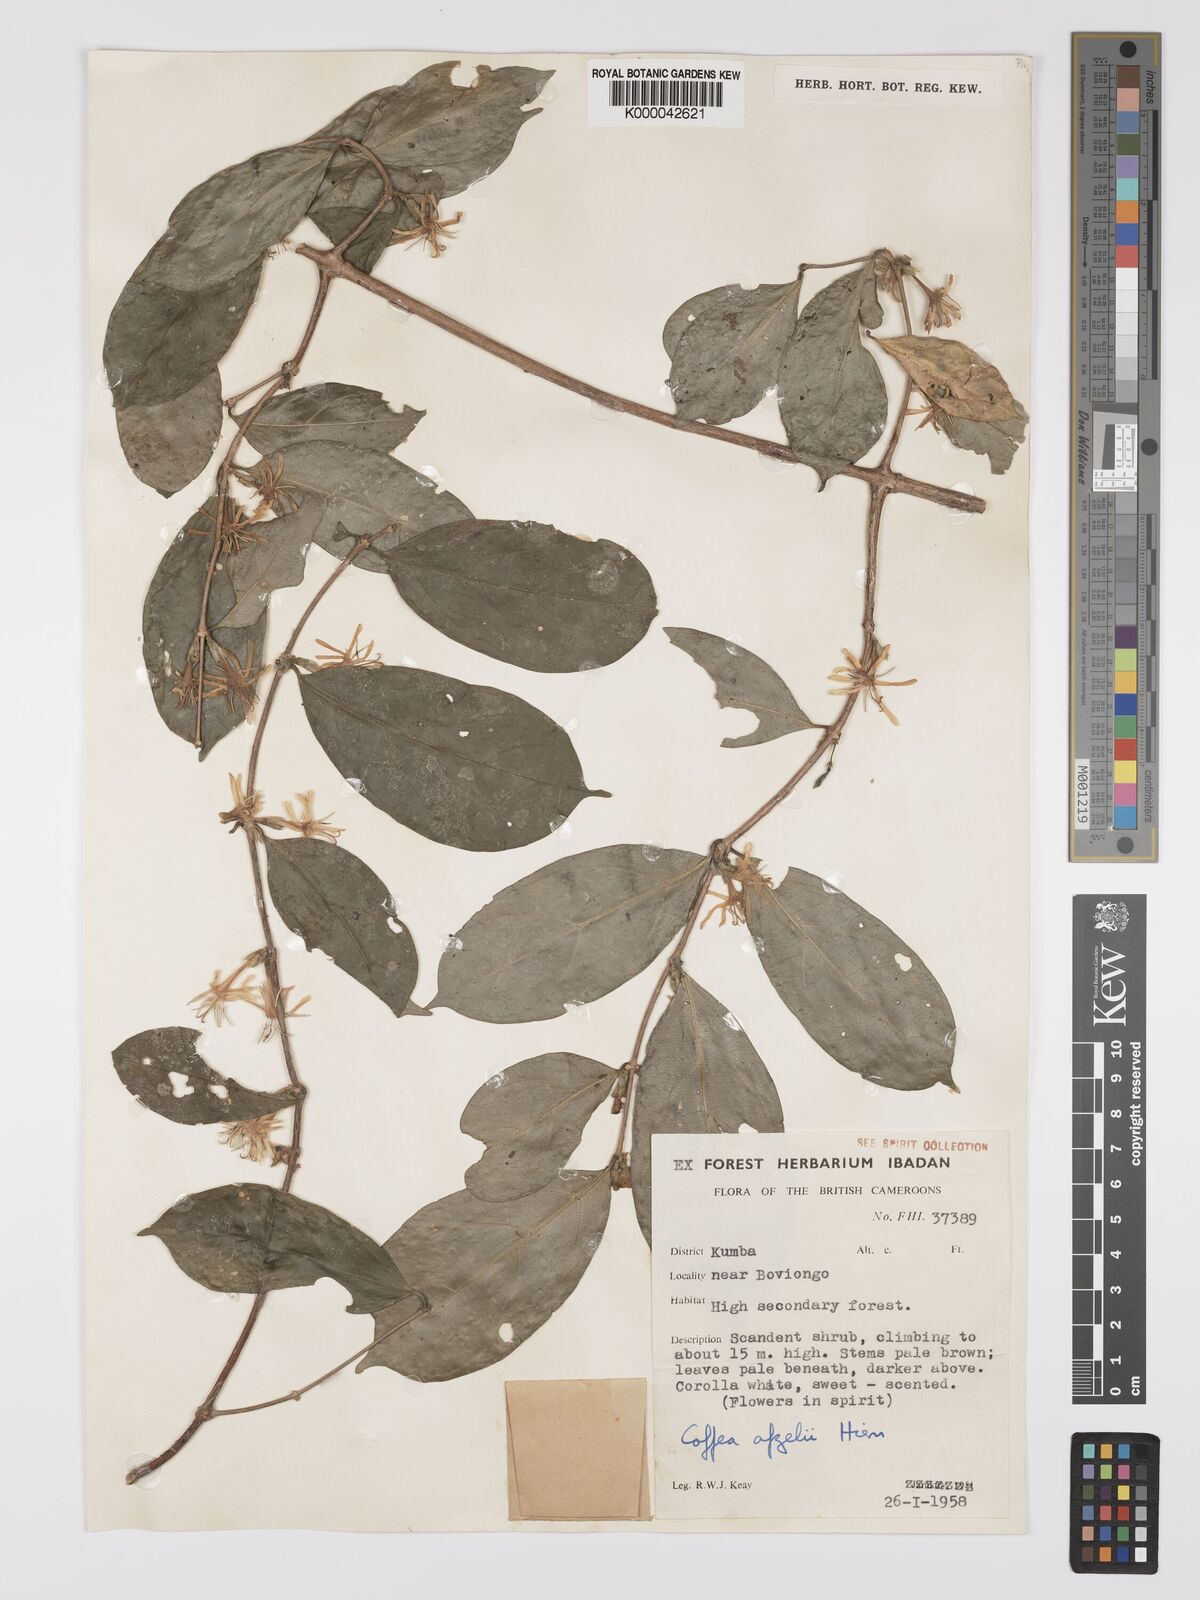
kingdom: Plantae
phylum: Tracheophyta
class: Magnoliopsida
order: Gentianales
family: Rubiaceae
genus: Argocoffeopsis
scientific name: Argocoffeopsis afzelii
